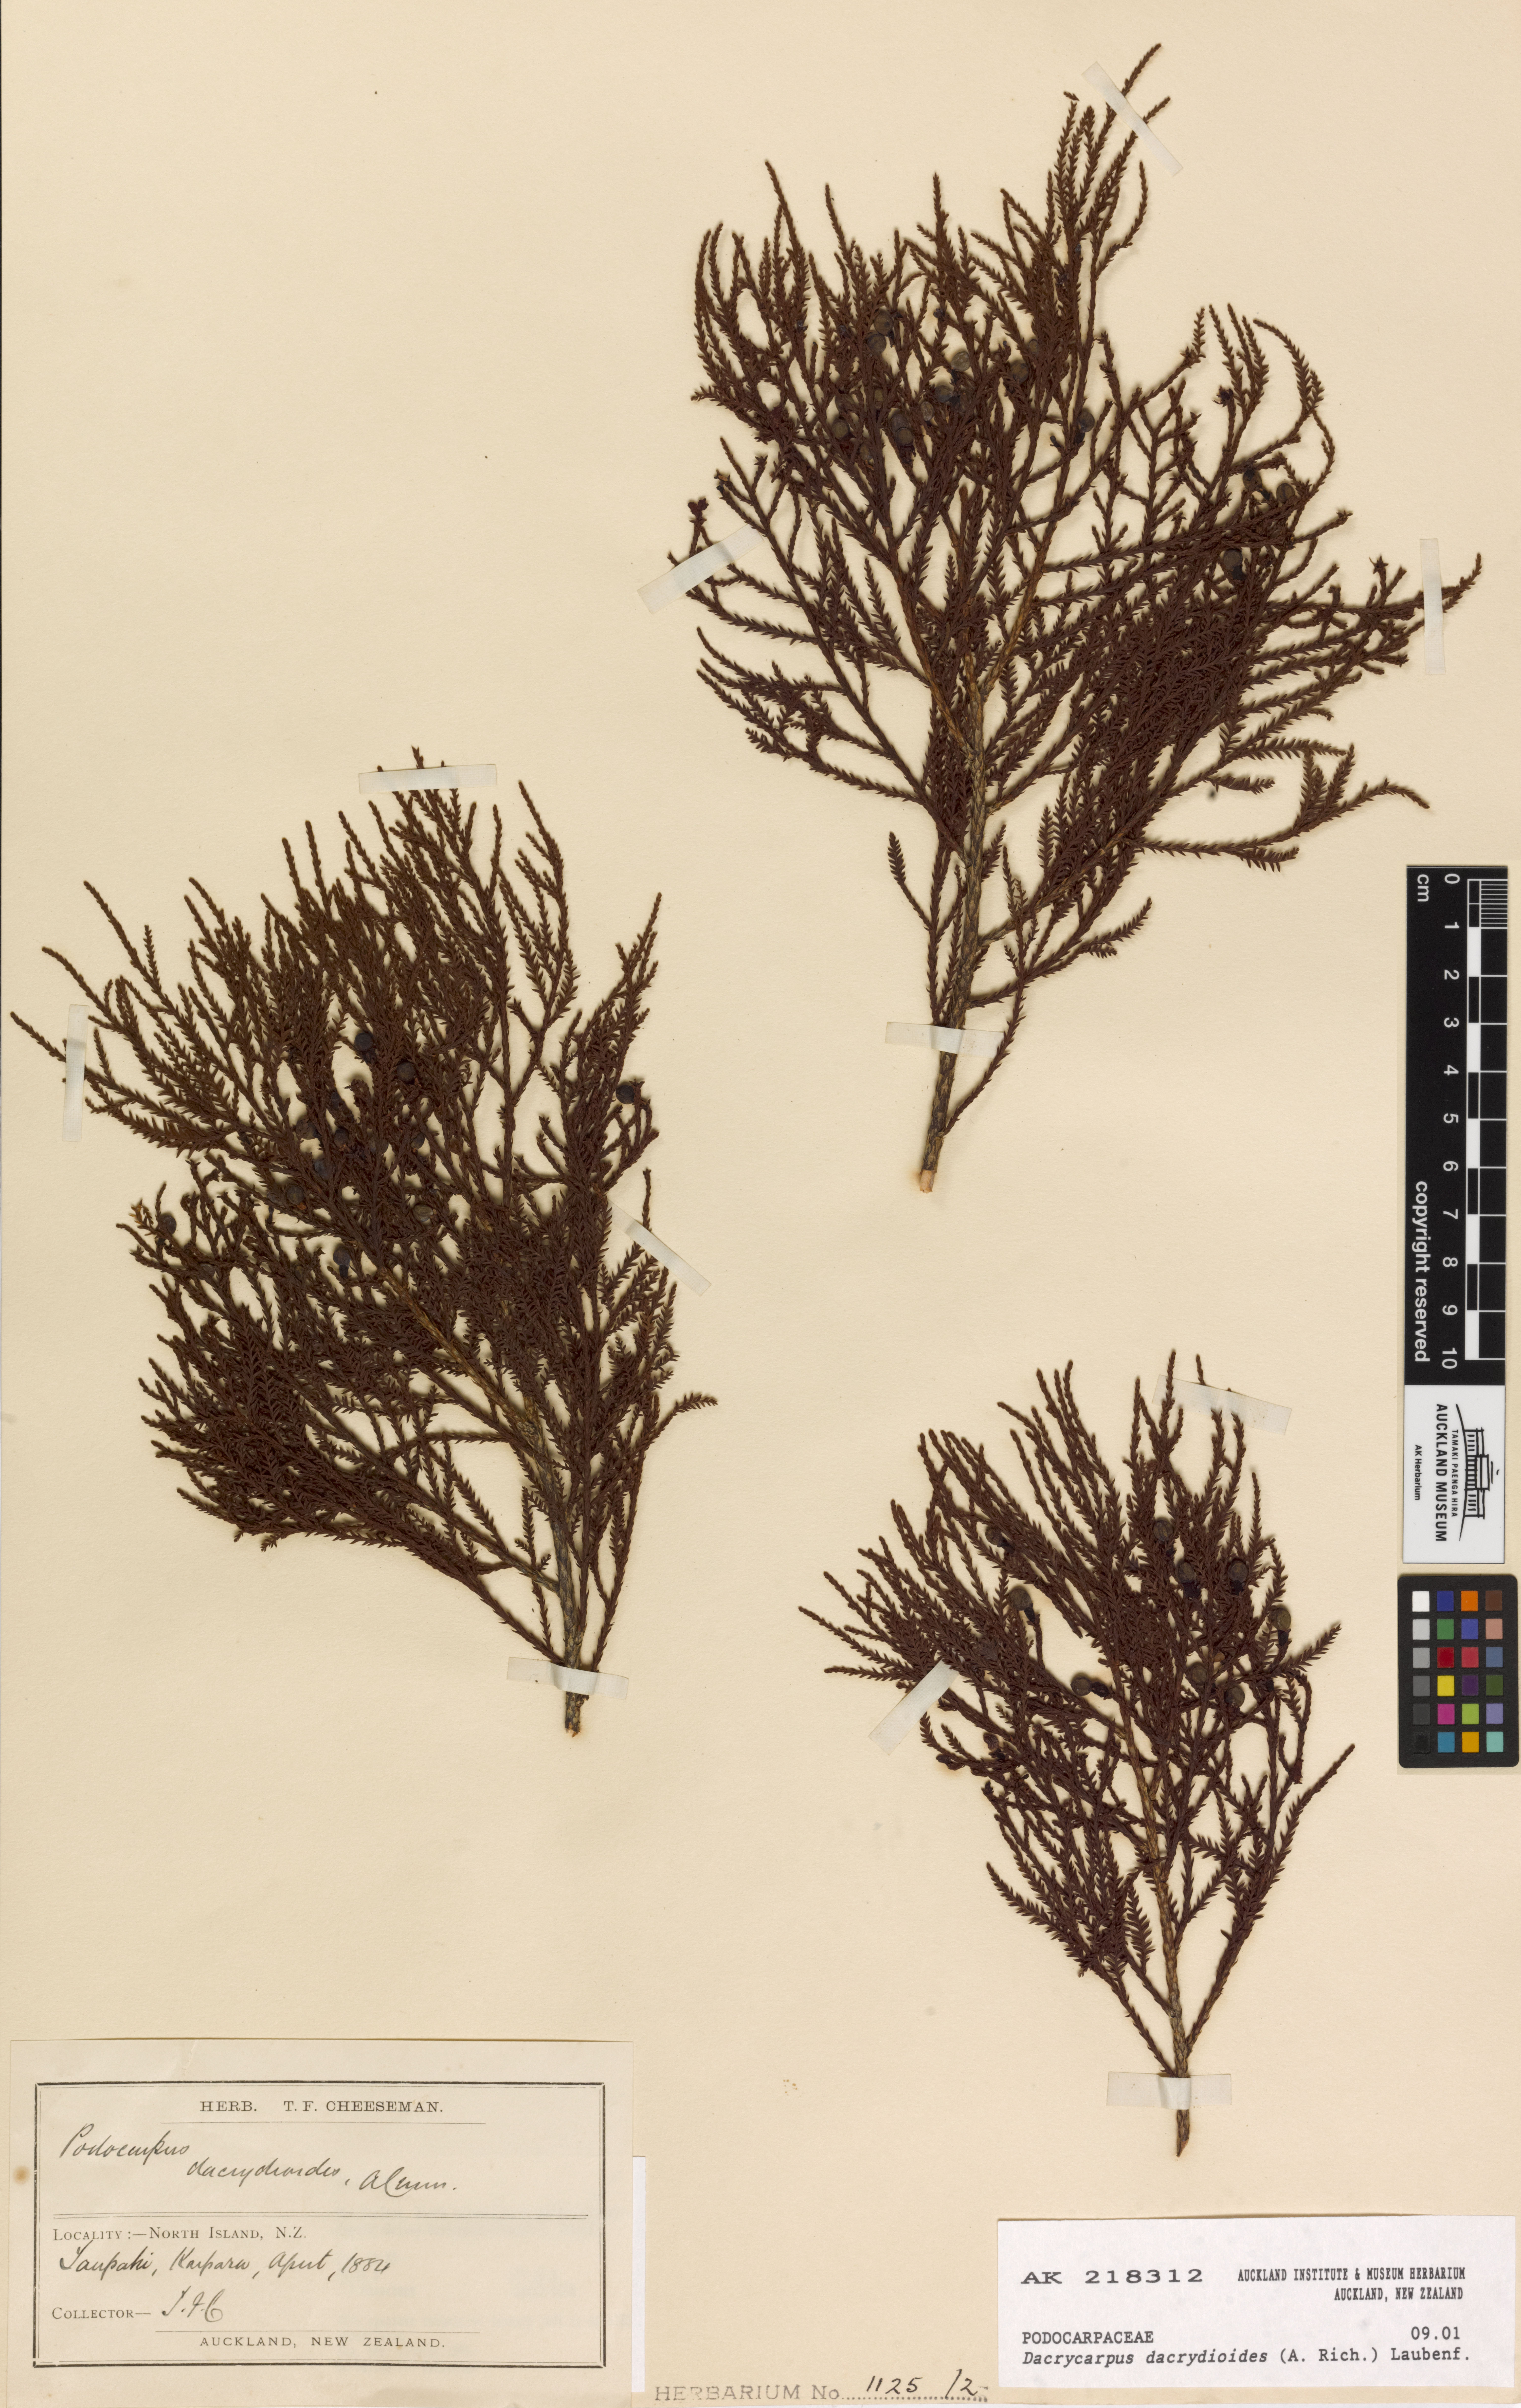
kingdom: Plantae
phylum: Tracheophyta
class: Pinopsida
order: Pinales
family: Podocarpaceae
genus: Dacrycarpus
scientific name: Dacrycarpus dacrydioides
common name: White pine
